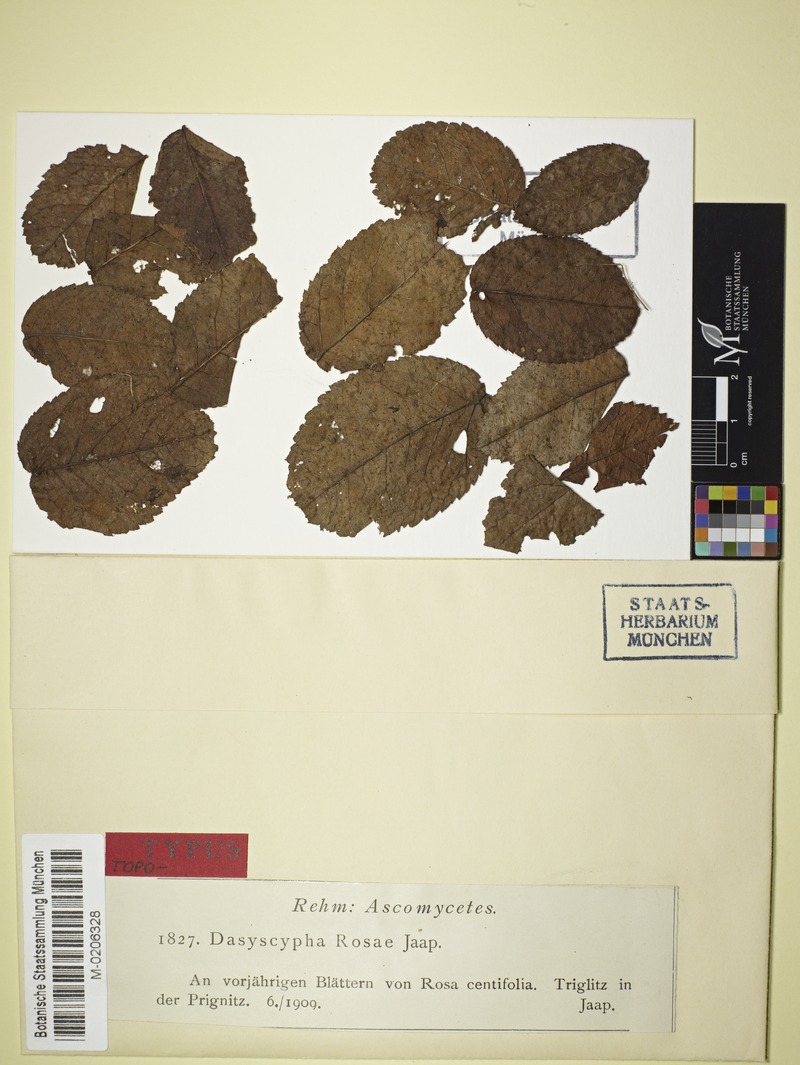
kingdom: Fungi
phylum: Ascomycota
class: Leotiomycetes
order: Helotiales
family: Lachnaceae
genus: Dasyscyphus
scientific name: Dasyscyphus rosae
